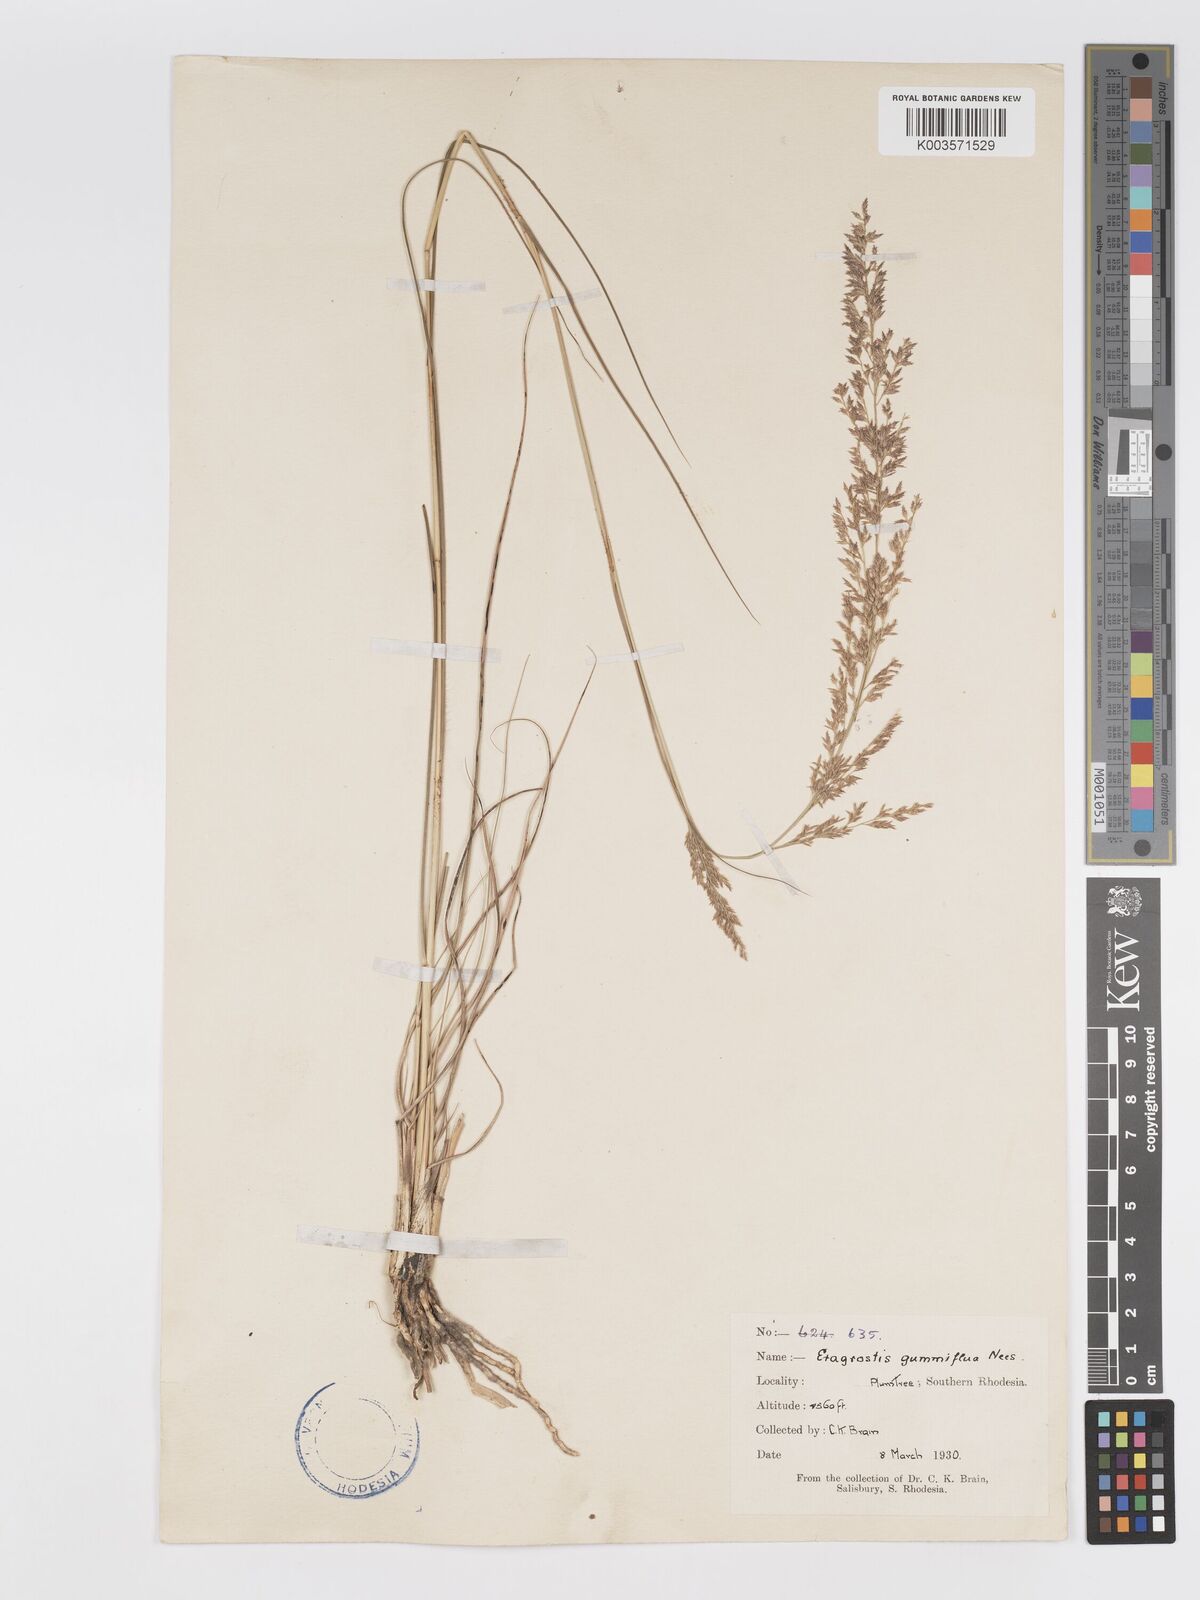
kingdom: Plantae
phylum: Tracheophyta
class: Liliopsida
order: Poales
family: Poaceae
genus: Eragrostis
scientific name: Eragrostis gummiflua
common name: Gum grass
